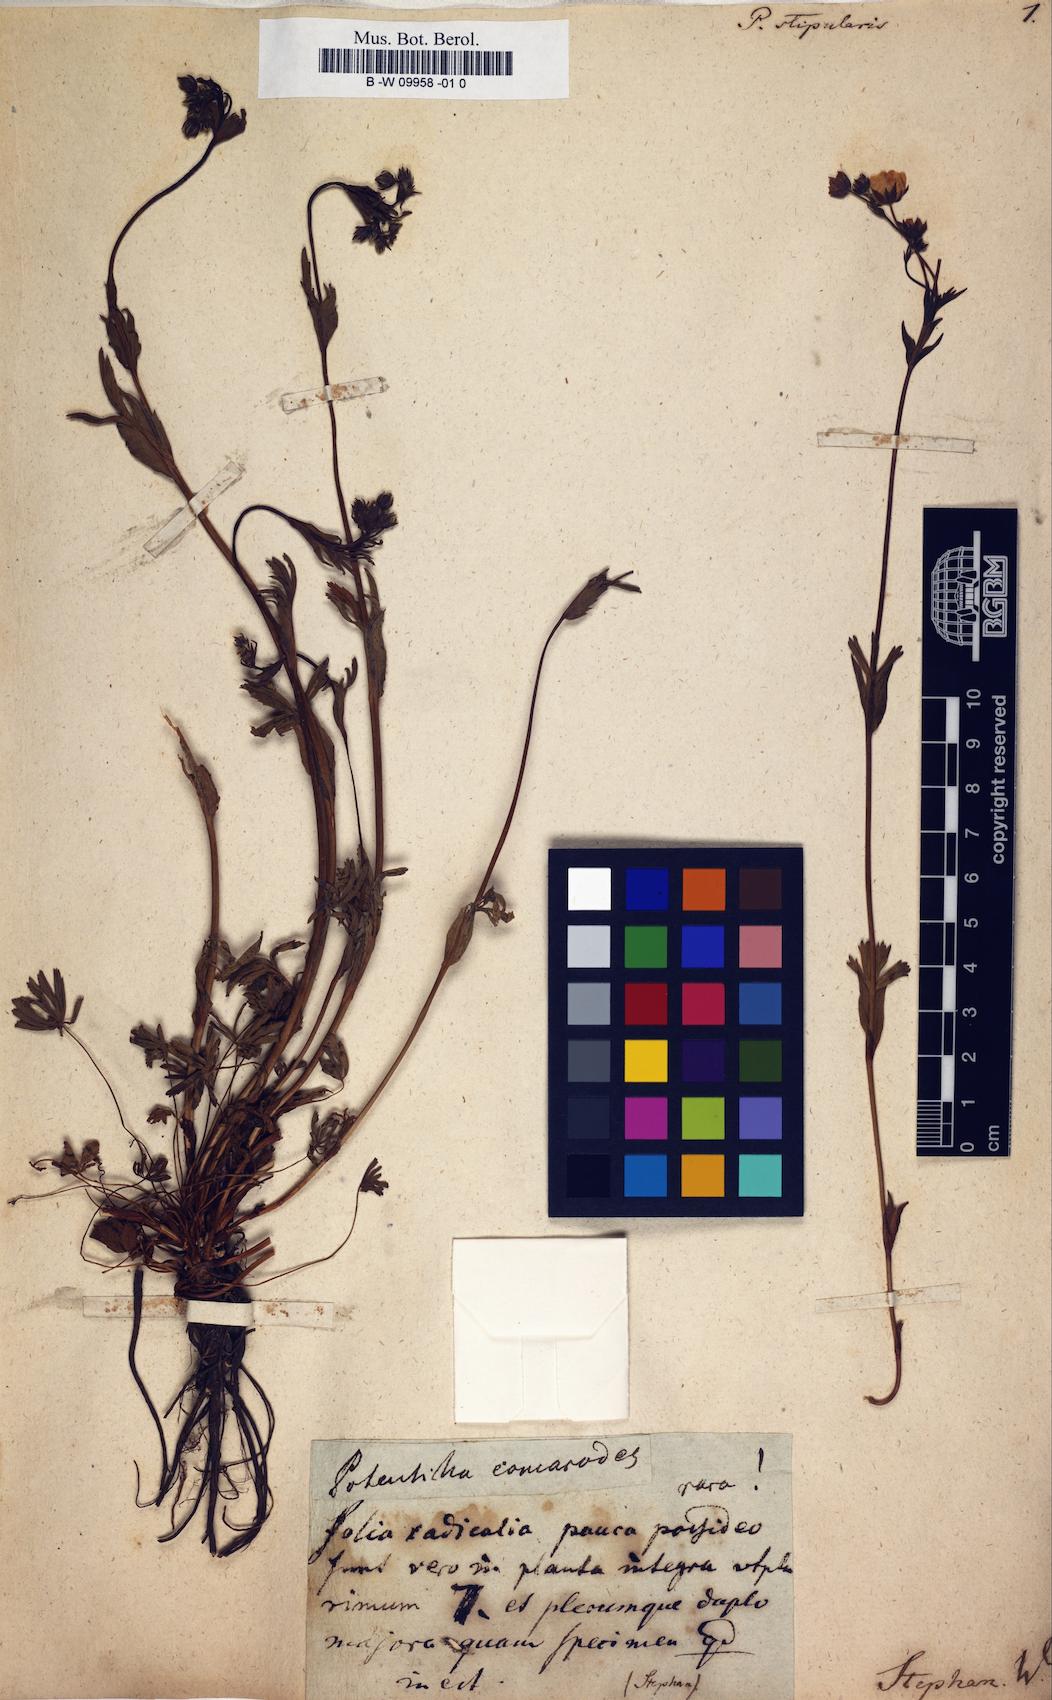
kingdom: Plantae
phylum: Tracheophyta
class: Magnoliopsida
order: Rosales
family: Rosaceae
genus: Potentilla
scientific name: Potentilla stipularis
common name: Circumpolar cinquefoil
